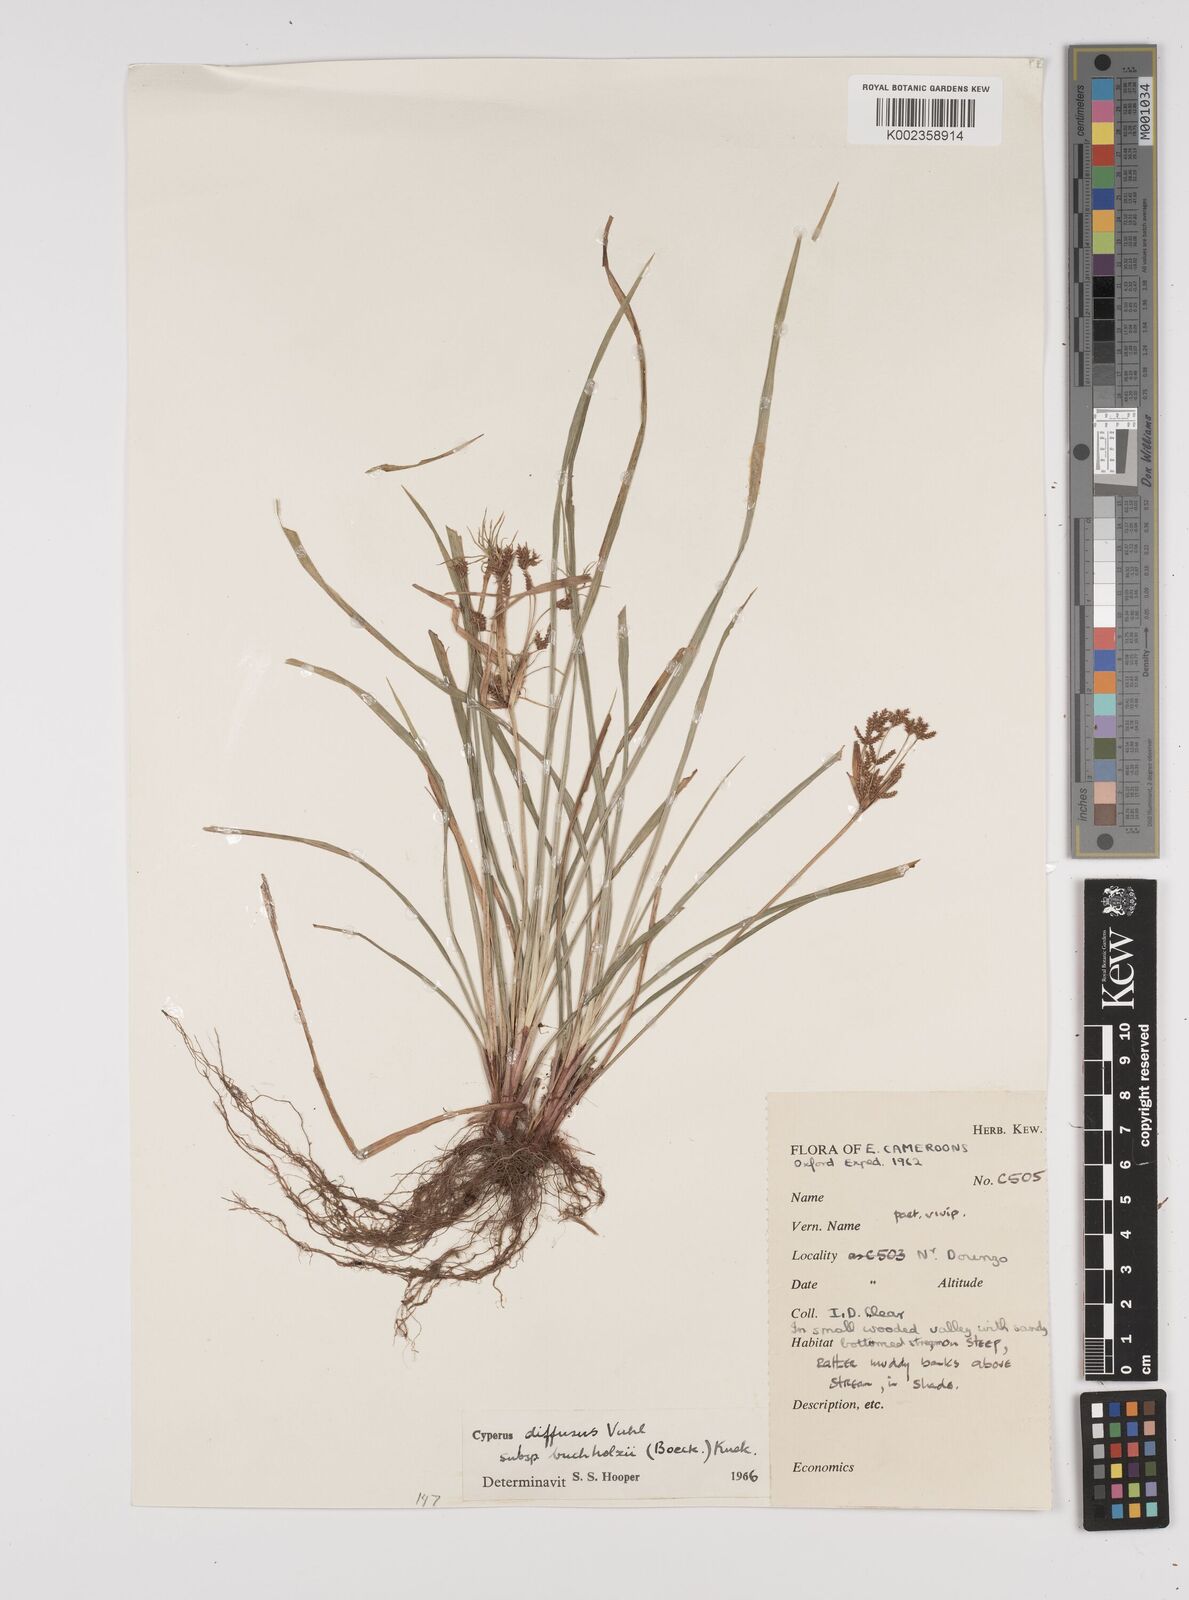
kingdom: Plantae
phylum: Tracheophyta
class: Liliopsida
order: Poales
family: Cyperaceae
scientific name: Cyperaceae
